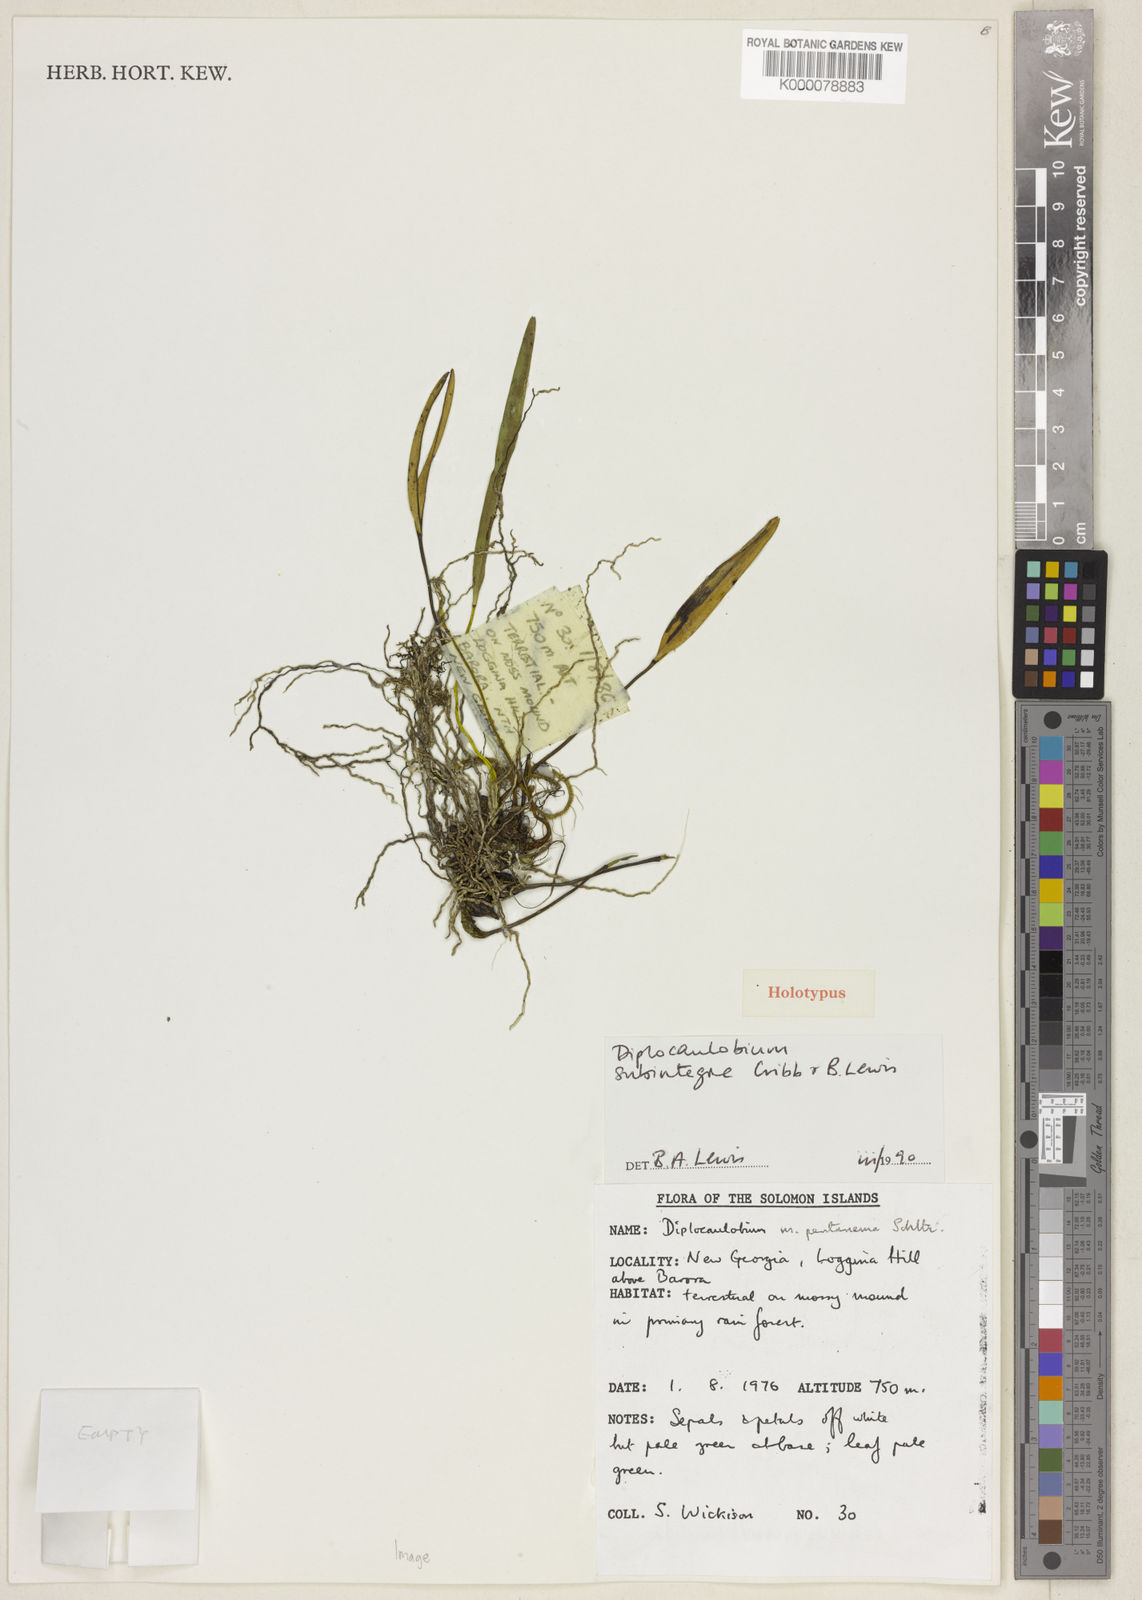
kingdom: Plantae
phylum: Tracheophyta
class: Liliopsida
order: Asparagales
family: Orchidaceae
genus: Dendrobium
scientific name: Dendrobium subintegrum
